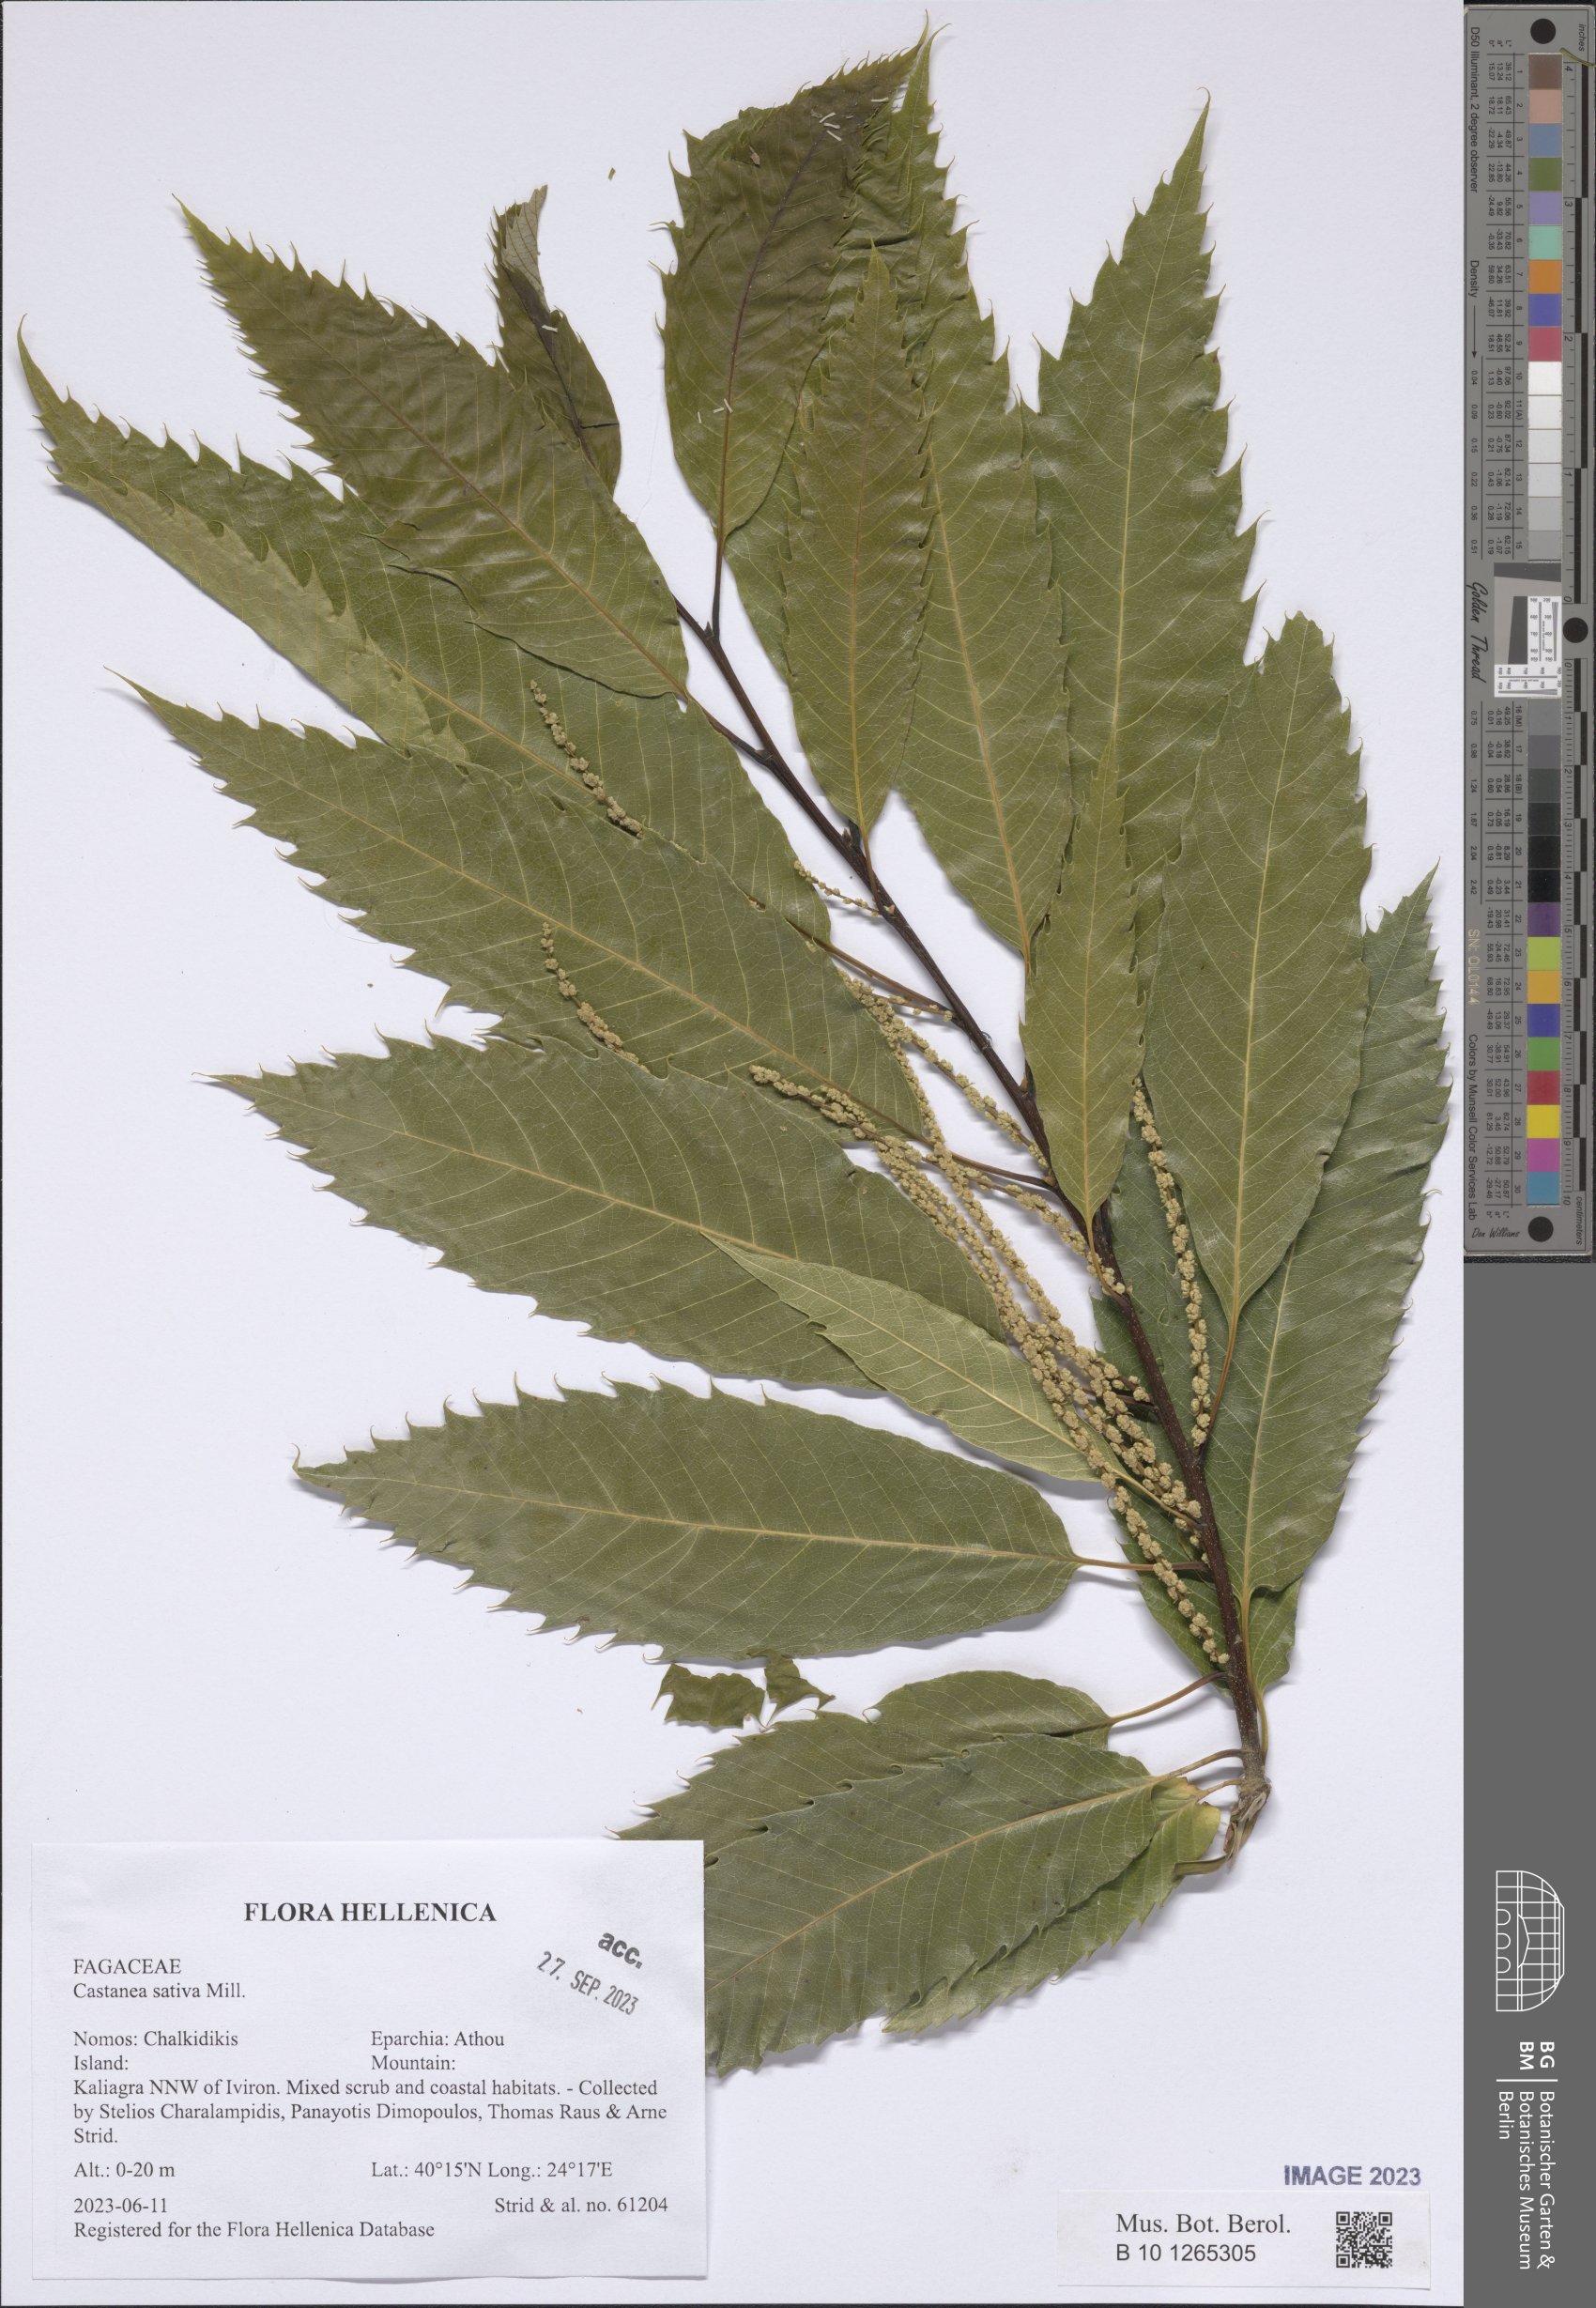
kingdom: Plantae
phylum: Tracheophyta
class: Magnoliopsida
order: Fagales
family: Fagaceae
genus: Castanea
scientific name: Castanea sativa
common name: Sweet chestnut
